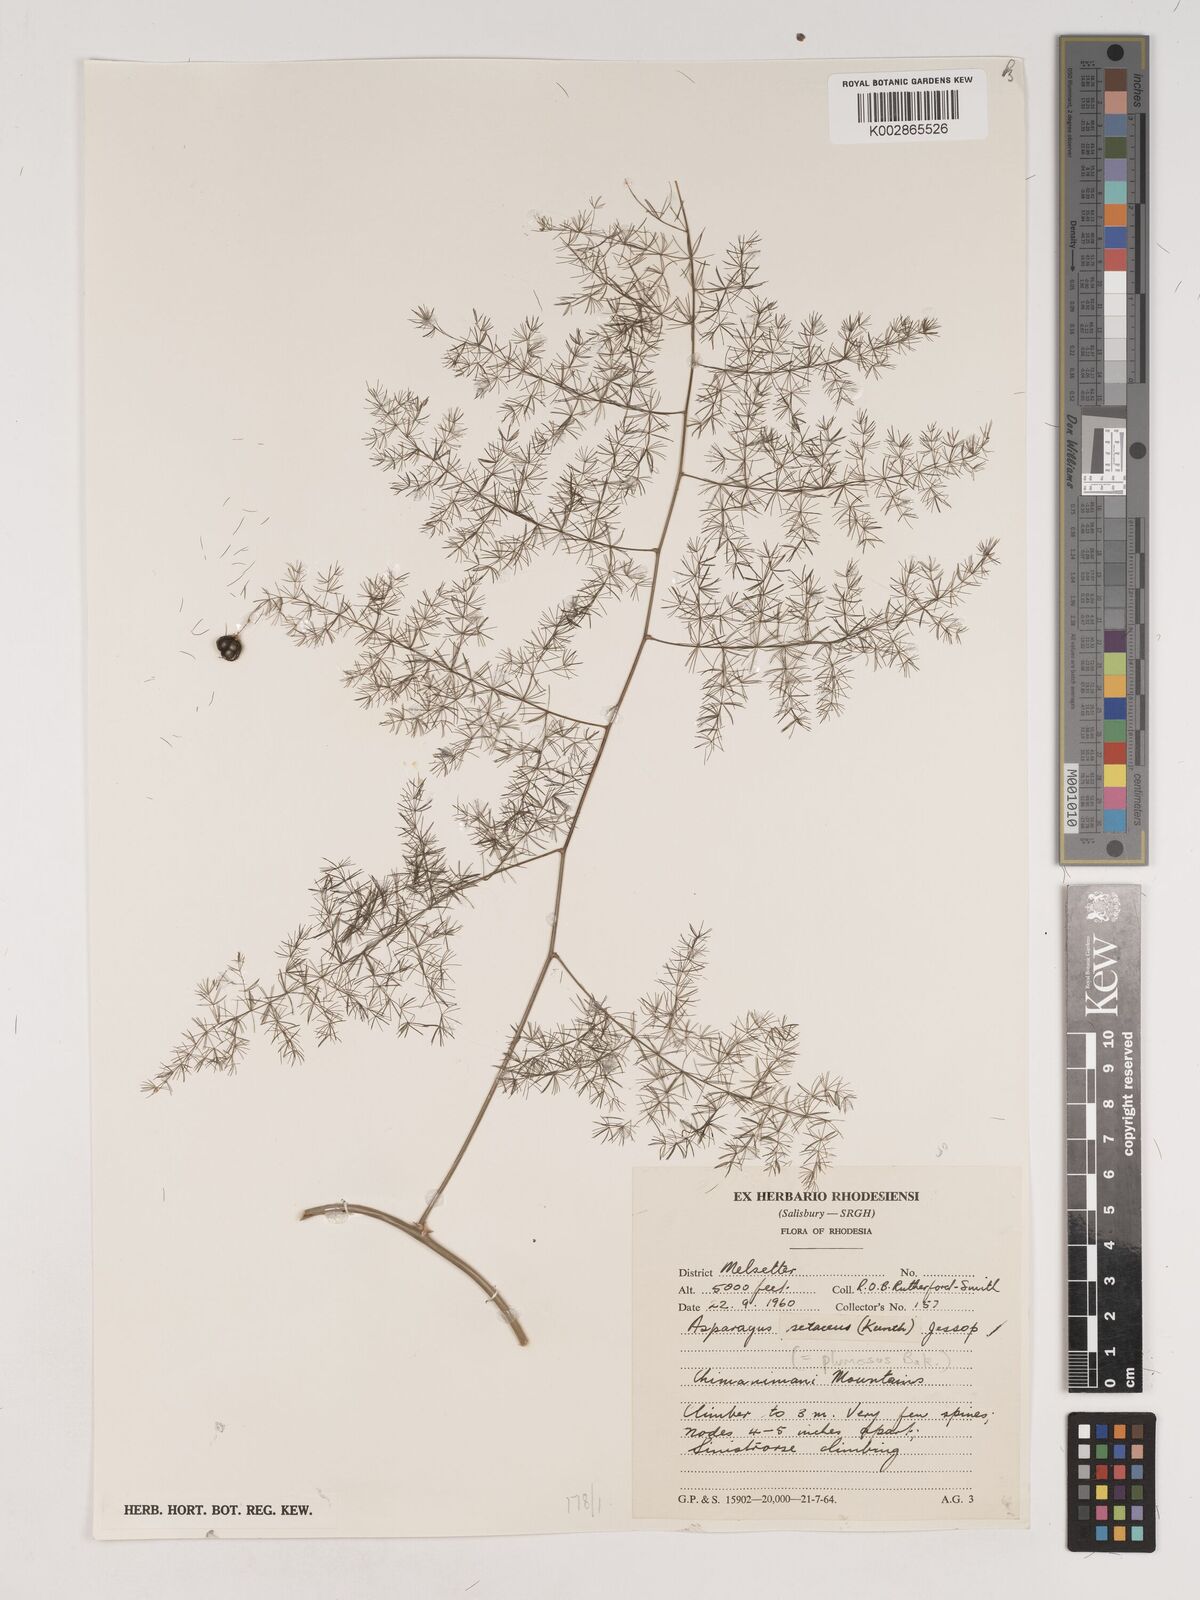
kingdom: Plantae
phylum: Tracheophyta
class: Liliopsida
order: Asparagales
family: Asparagaceae
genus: Asparagus
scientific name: Asparagus setaceus
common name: Common asparagus fern
